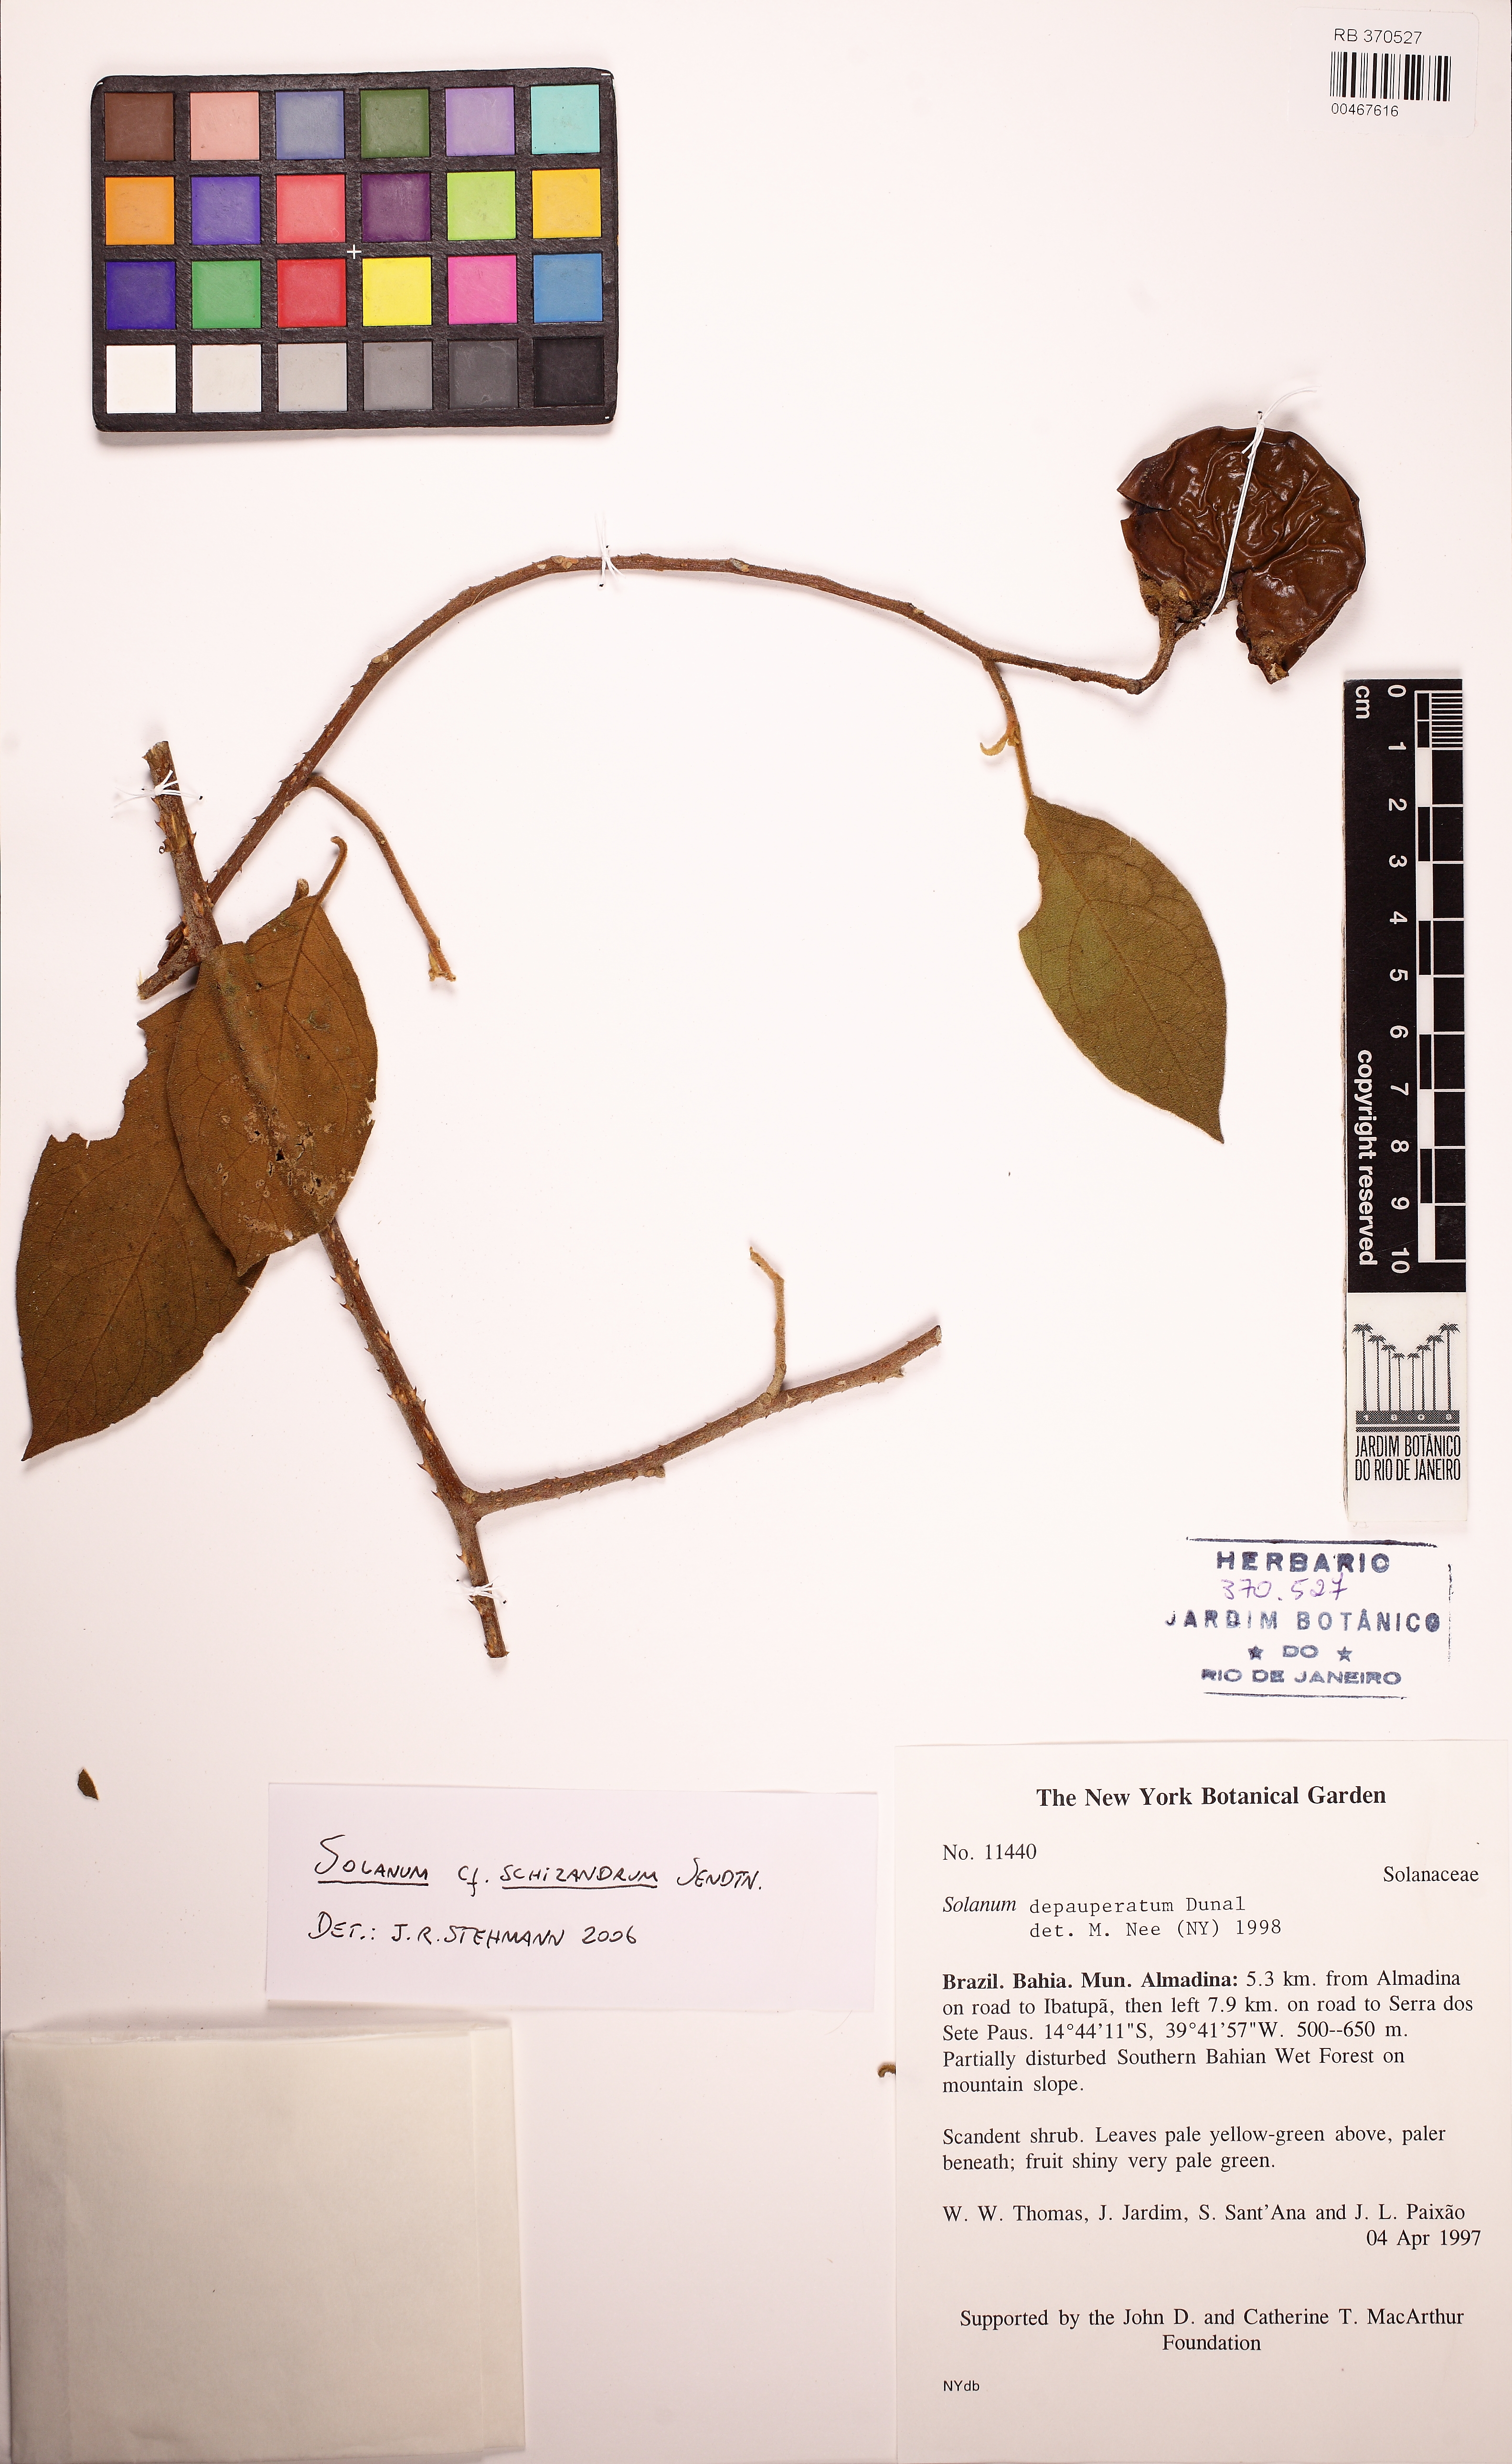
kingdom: Plantae
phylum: Tracheophyta
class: Magnoliopsida
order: Solanales
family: Solanaceae
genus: Solanum
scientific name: Solanum schizandrum
